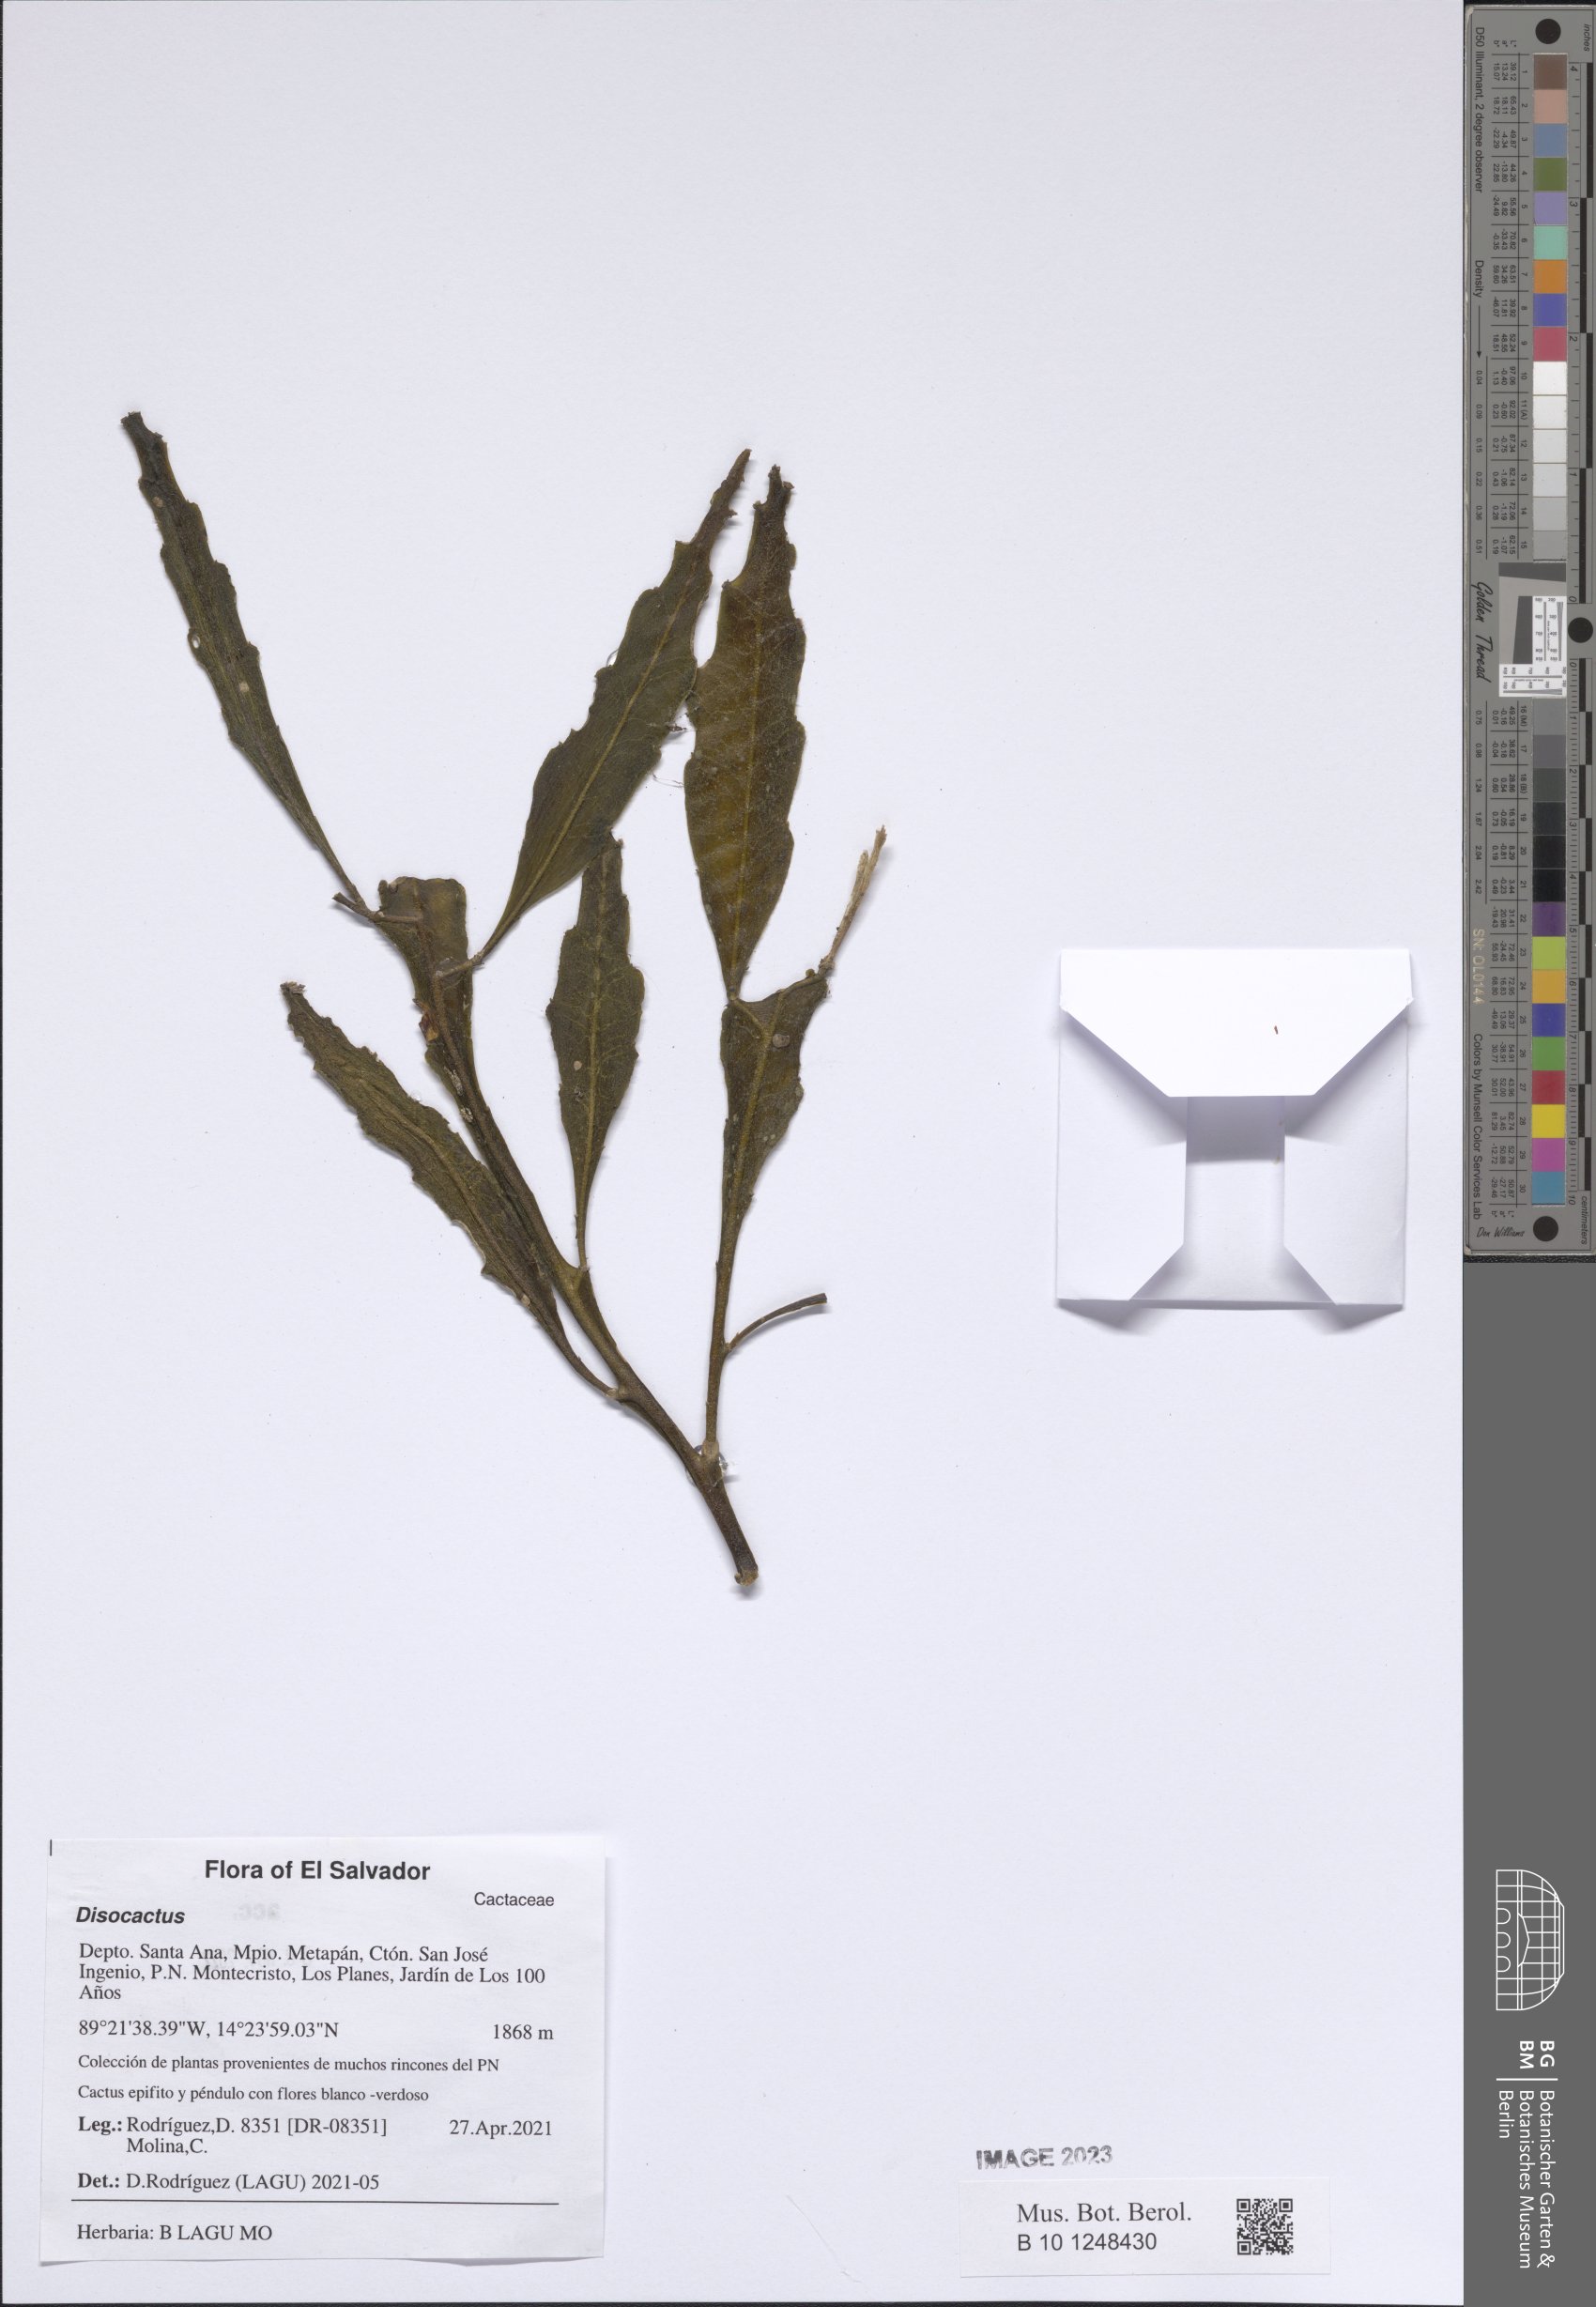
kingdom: Plantae
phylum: Tracheophyta
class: Magnoliopsida
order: Caryophyllales
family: Cactaceae
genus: Disocactus
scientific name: Disocactus salvadorensis
